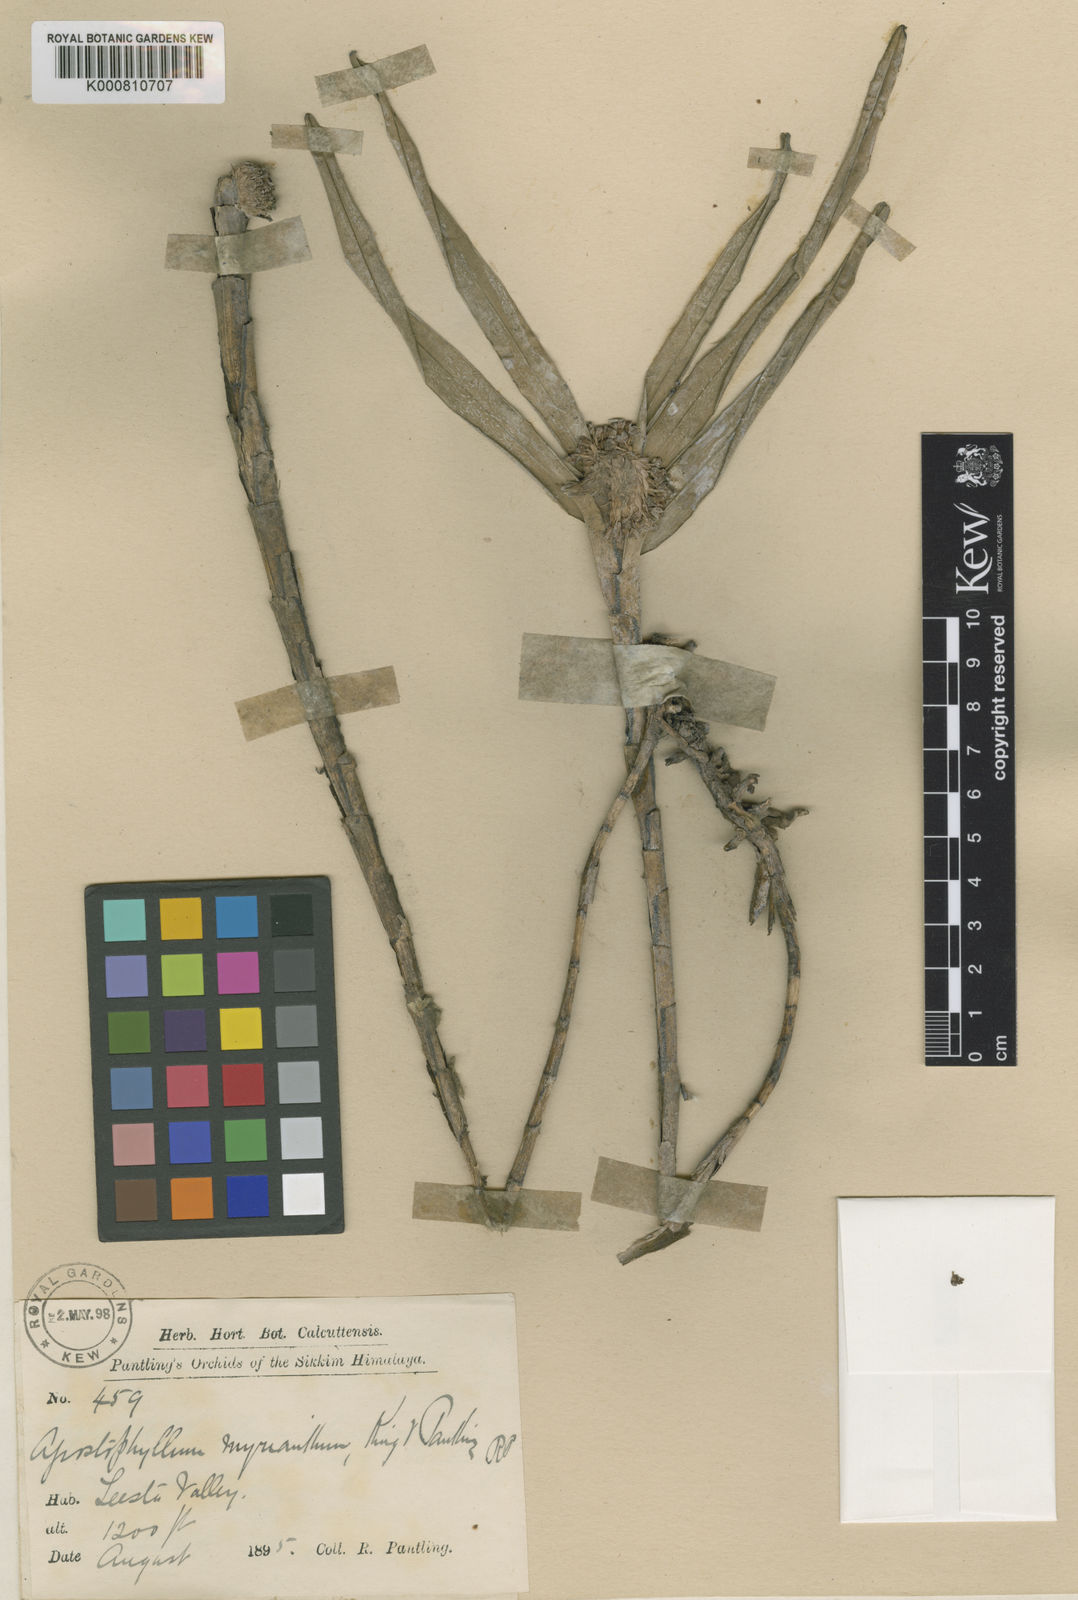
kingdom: Plantae
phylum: Tracheophyta
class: Liliopsida
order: Asparagales
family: Orchidaceae
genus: Agrostophyllum
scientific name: Agrostophyllum myrianthum
